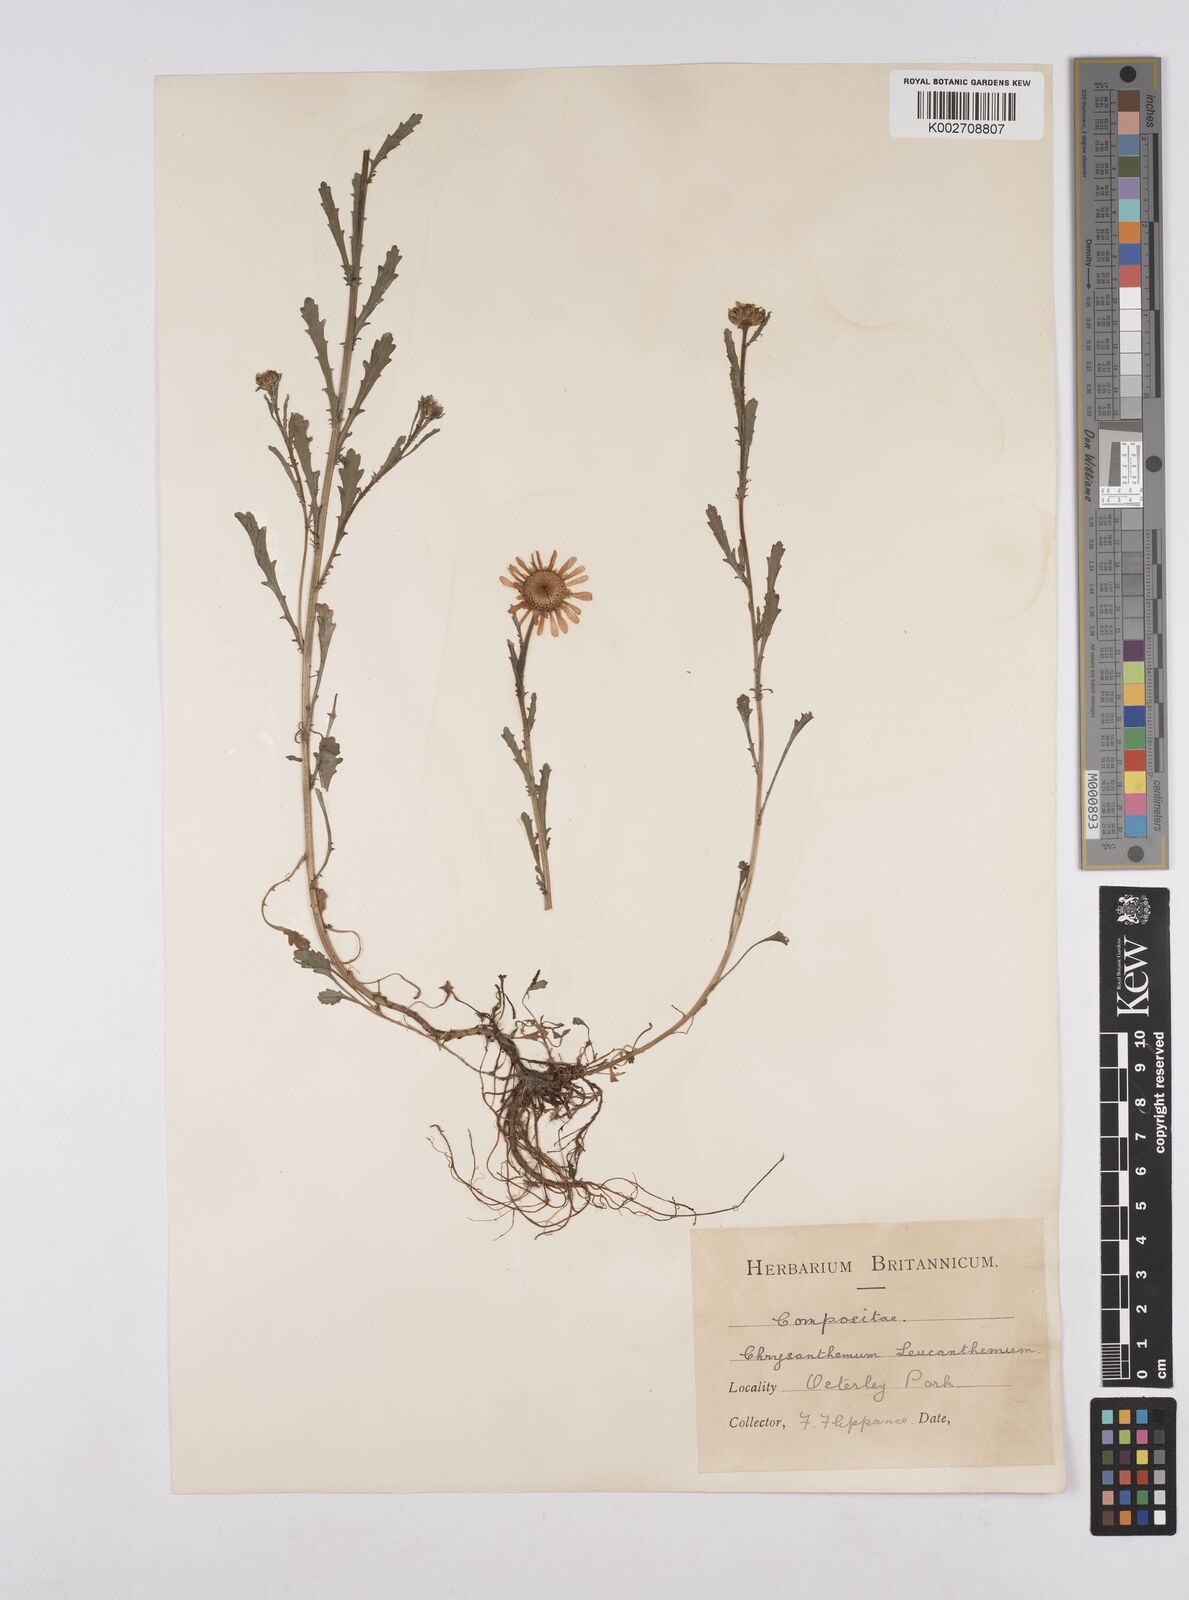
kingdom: Plantae
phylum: Tracheophyta
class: Magnoliopsida
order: Asterales
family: Asteraceae
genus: Leucanthemum
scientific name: Leucanthemum vulgare
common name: Oxeye daisy
